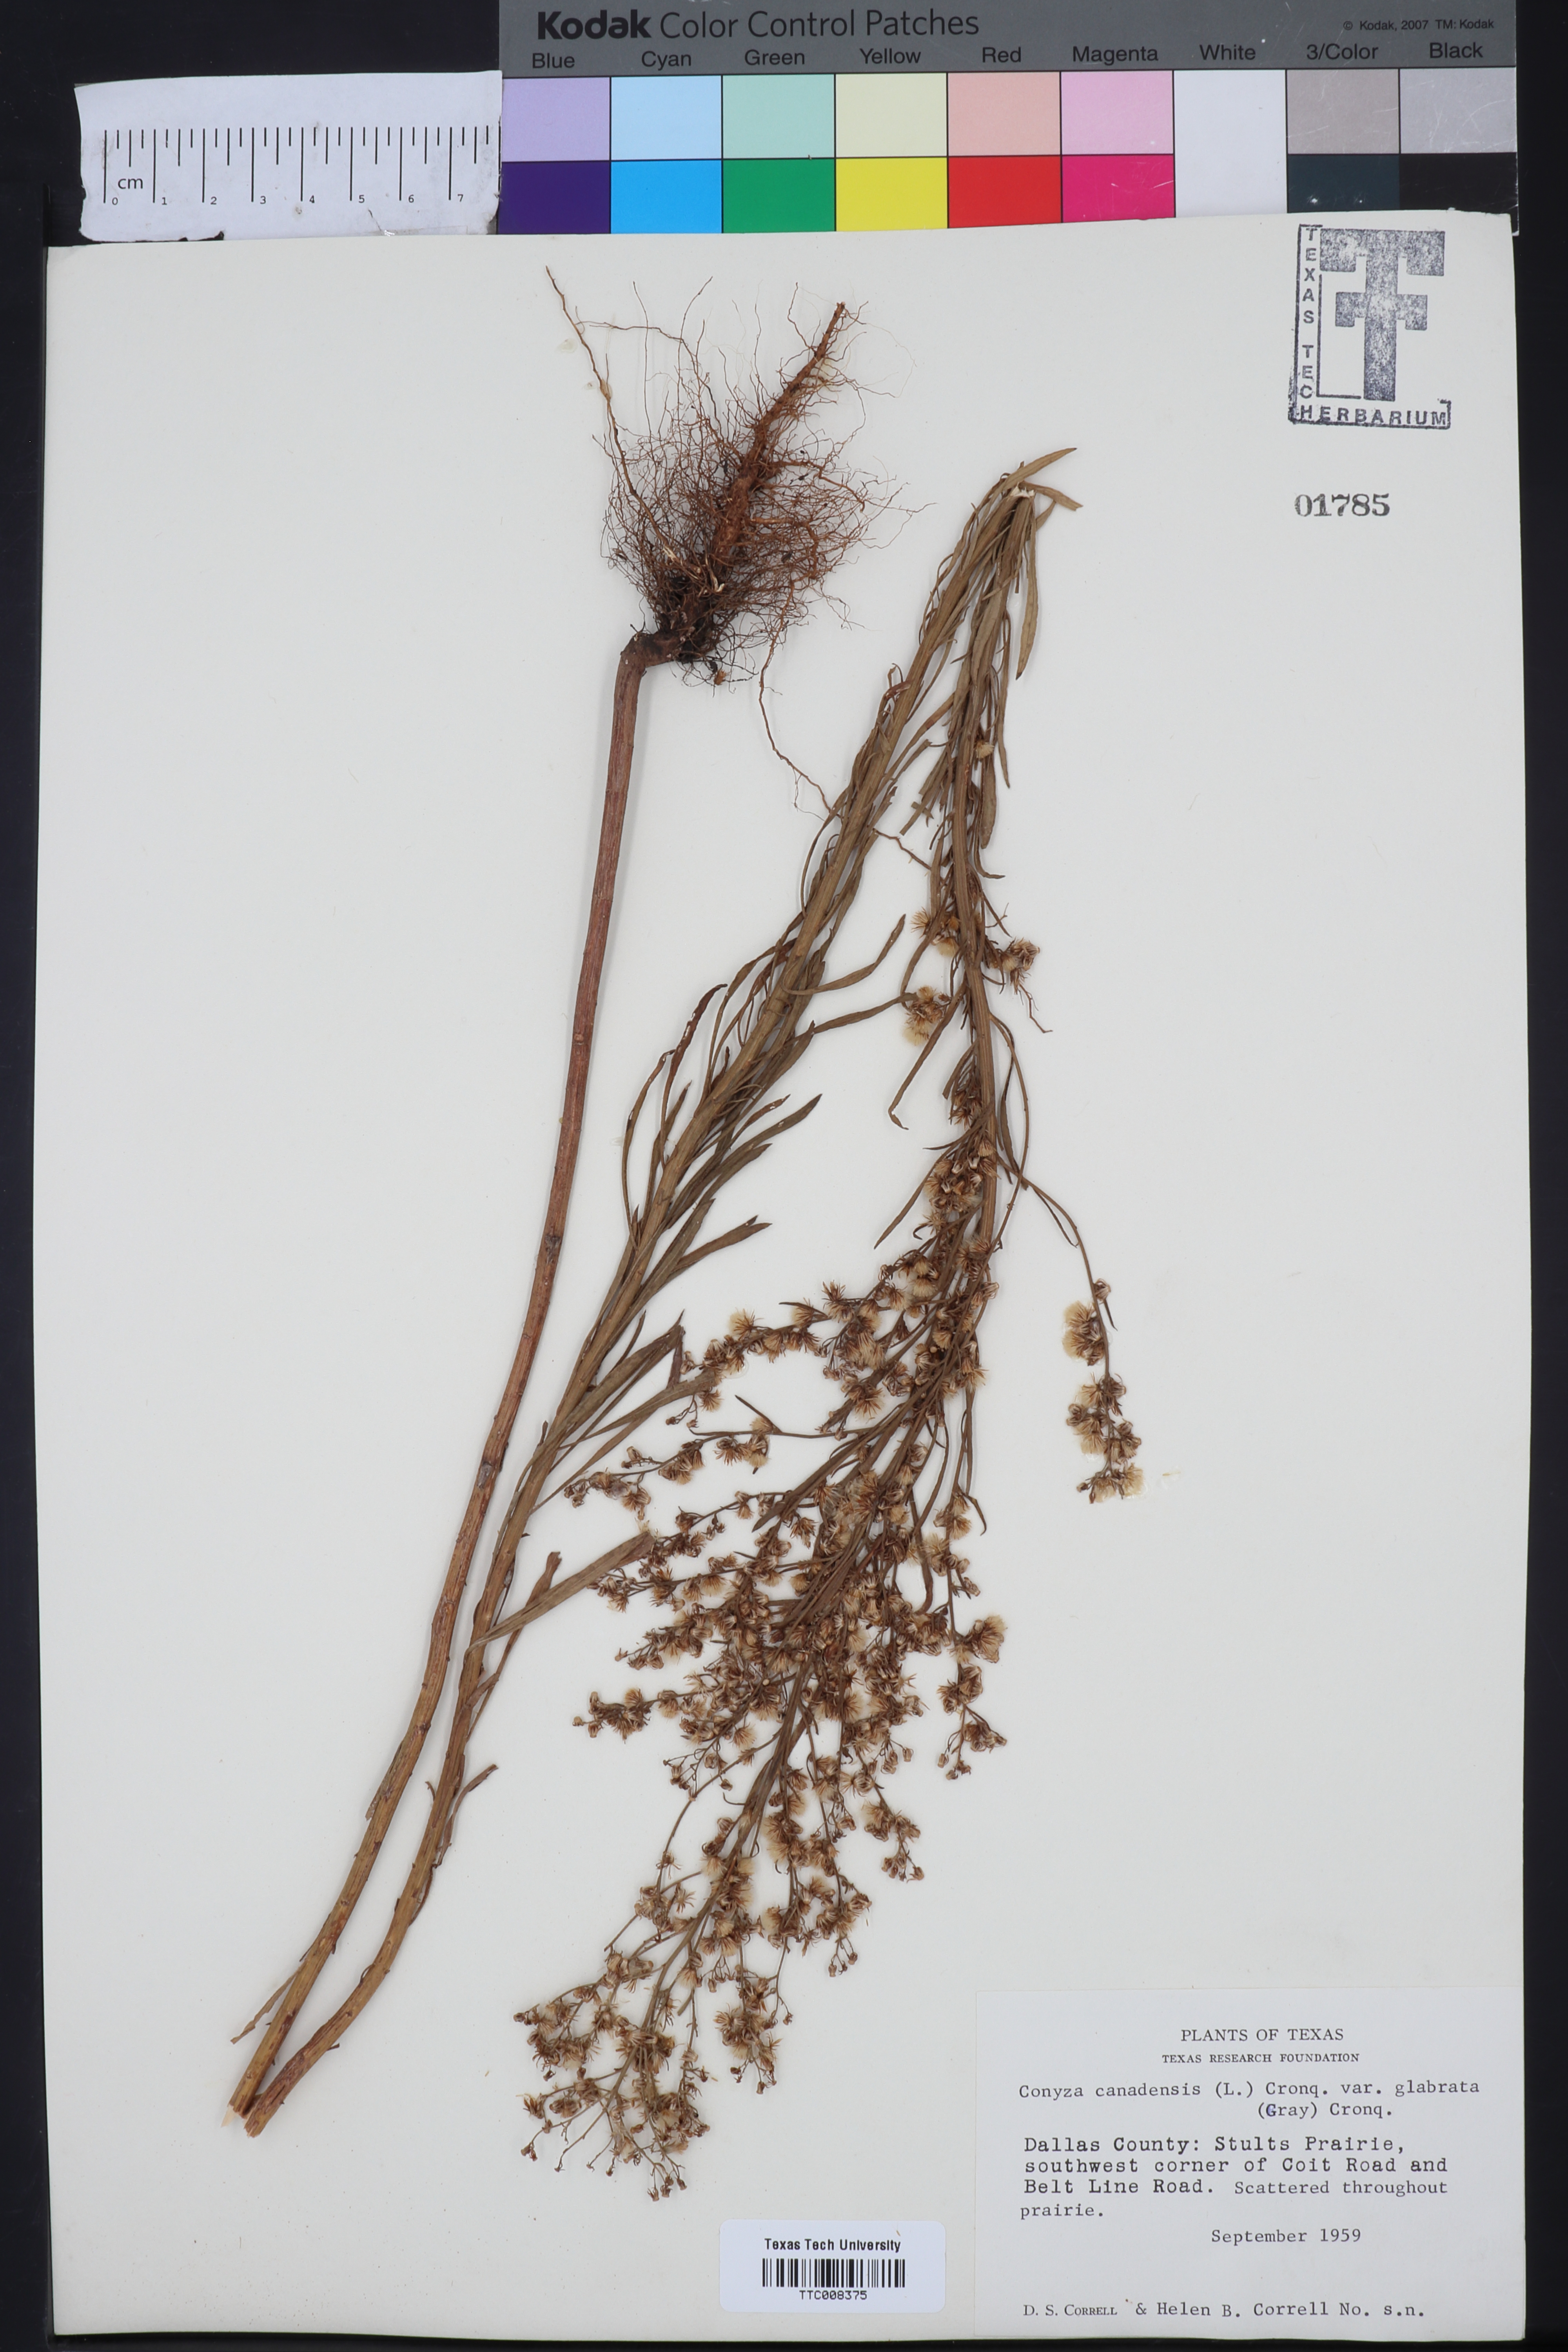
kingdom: Plantae
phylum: Tracheophyta
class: Magnoliopsida
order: Asterales
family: Asteraceae
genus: Erigeron
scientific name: Erigeron canadensis
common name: Canadian fleabane
